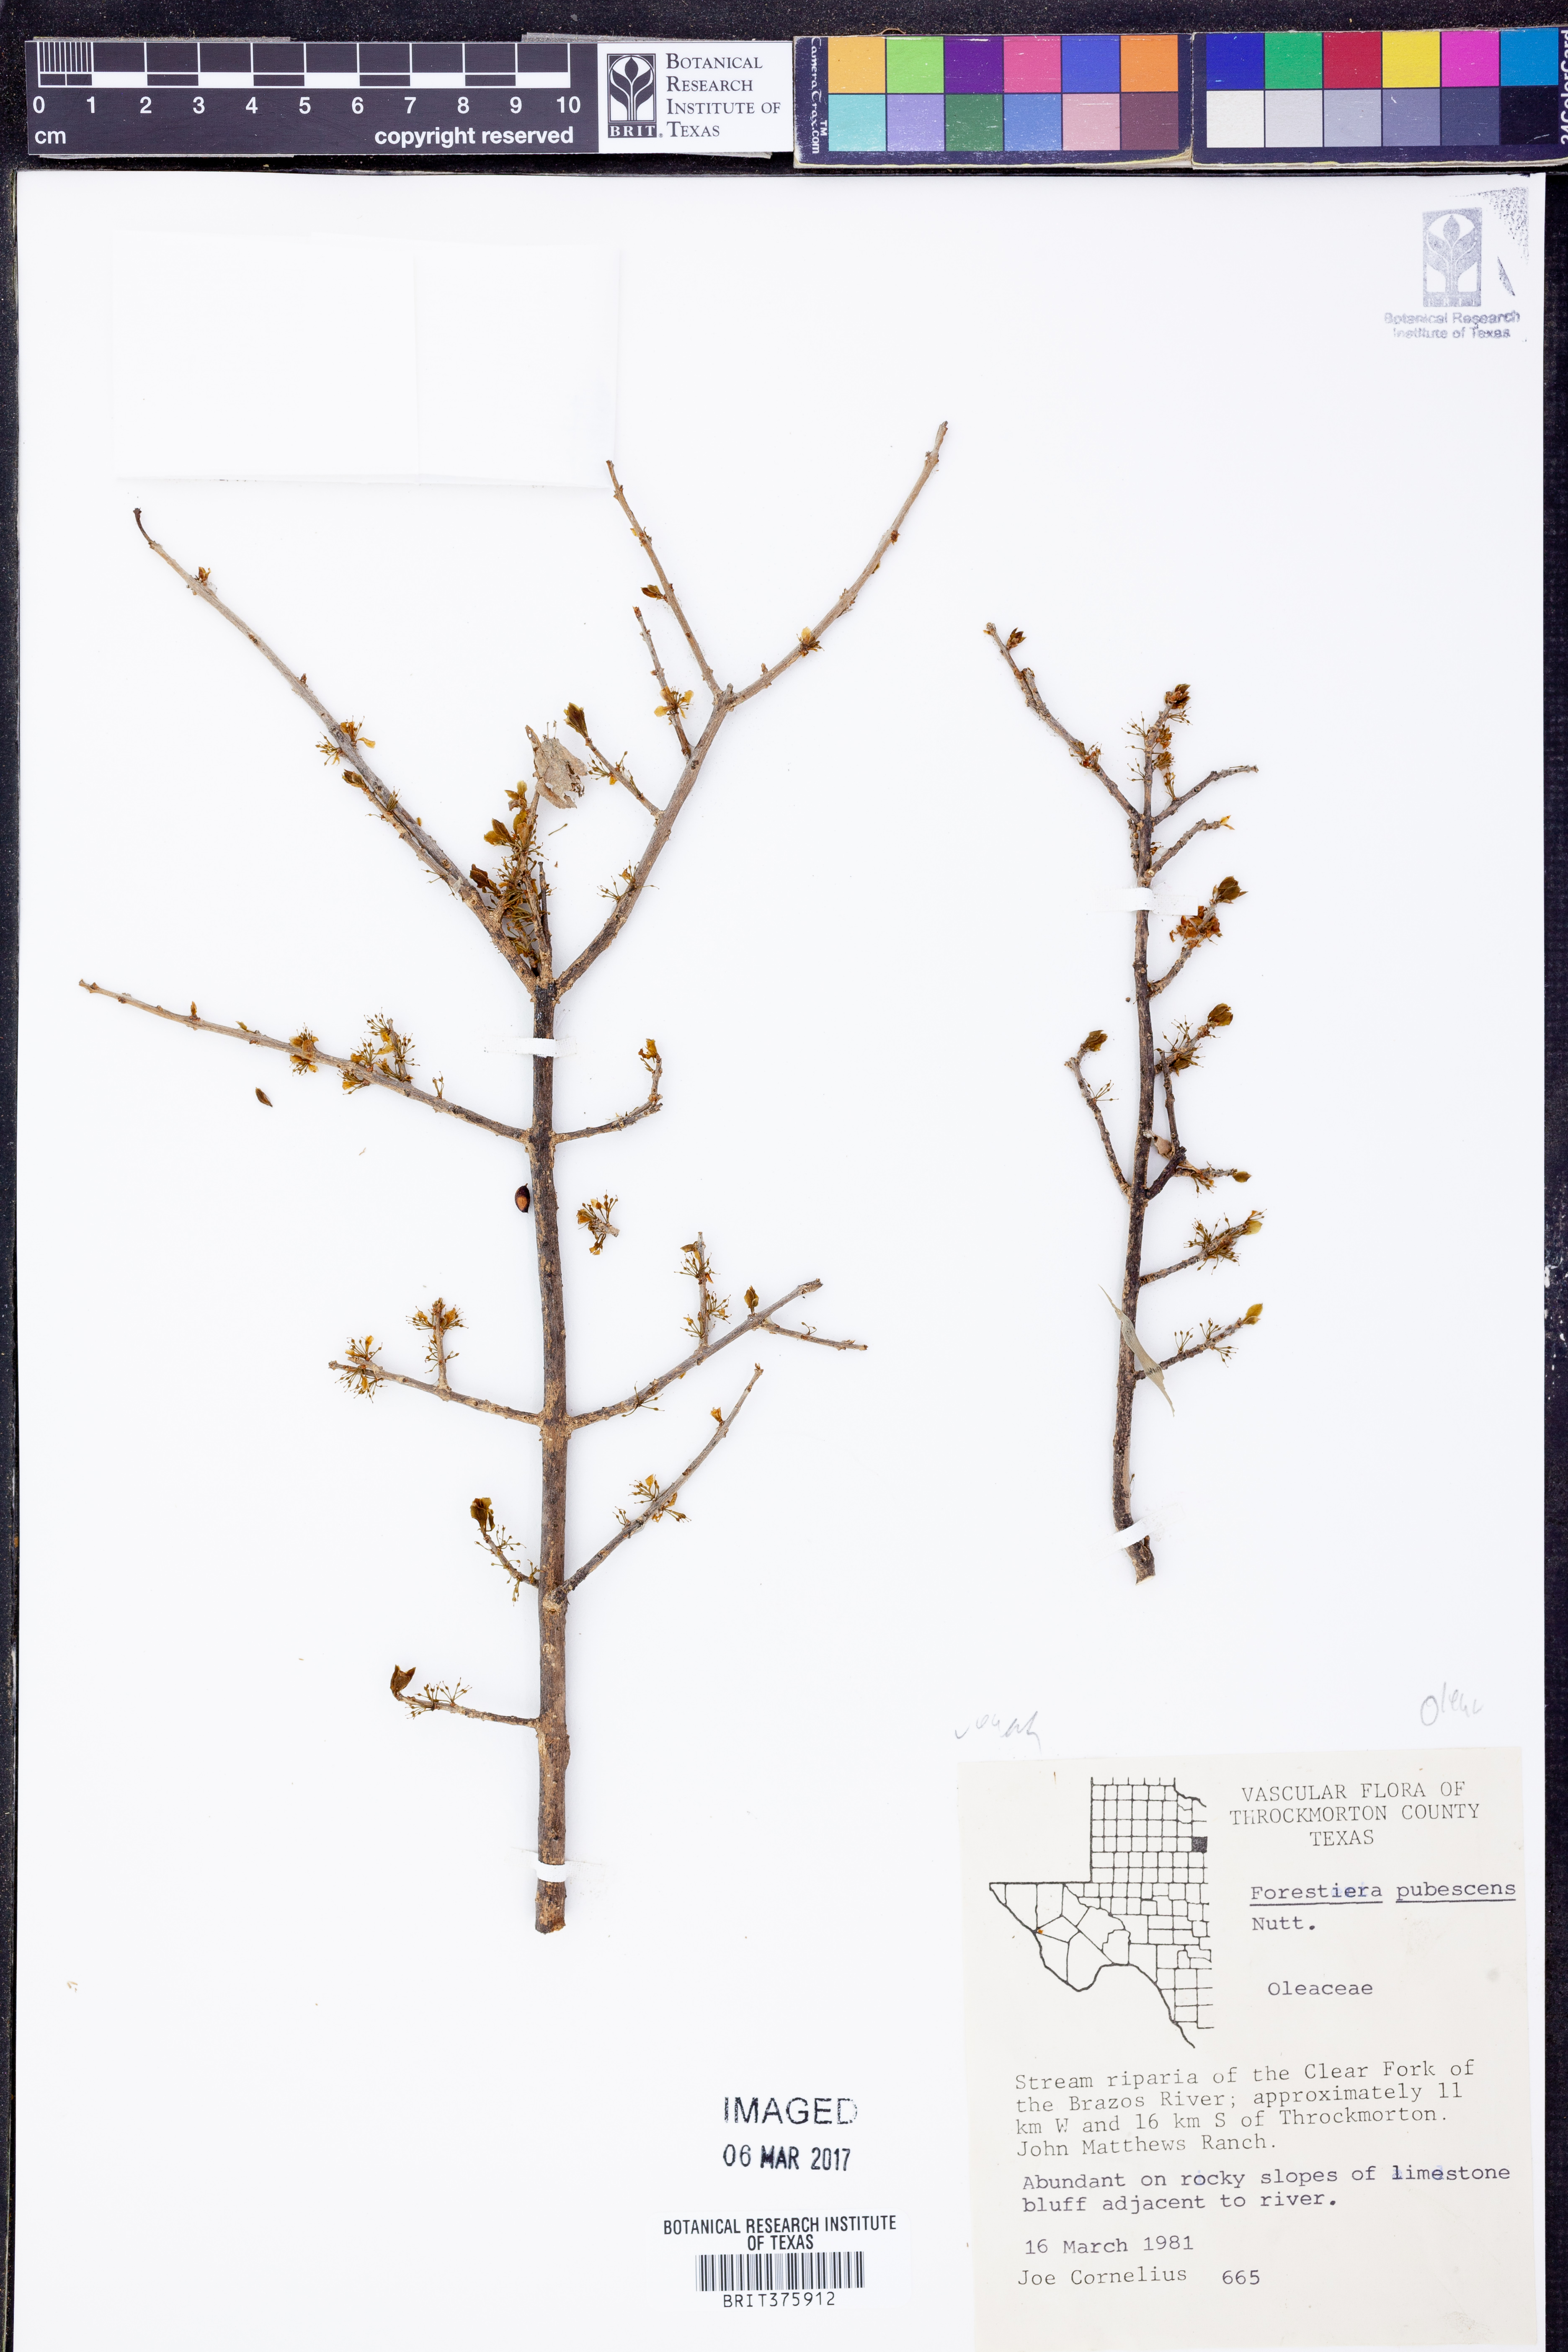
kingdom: Plantae
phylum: Tracheophyta
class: Magnoliopsida
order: Lamiales
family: Oleaceae
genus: Forestiera
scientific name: Forestiera pubescens
